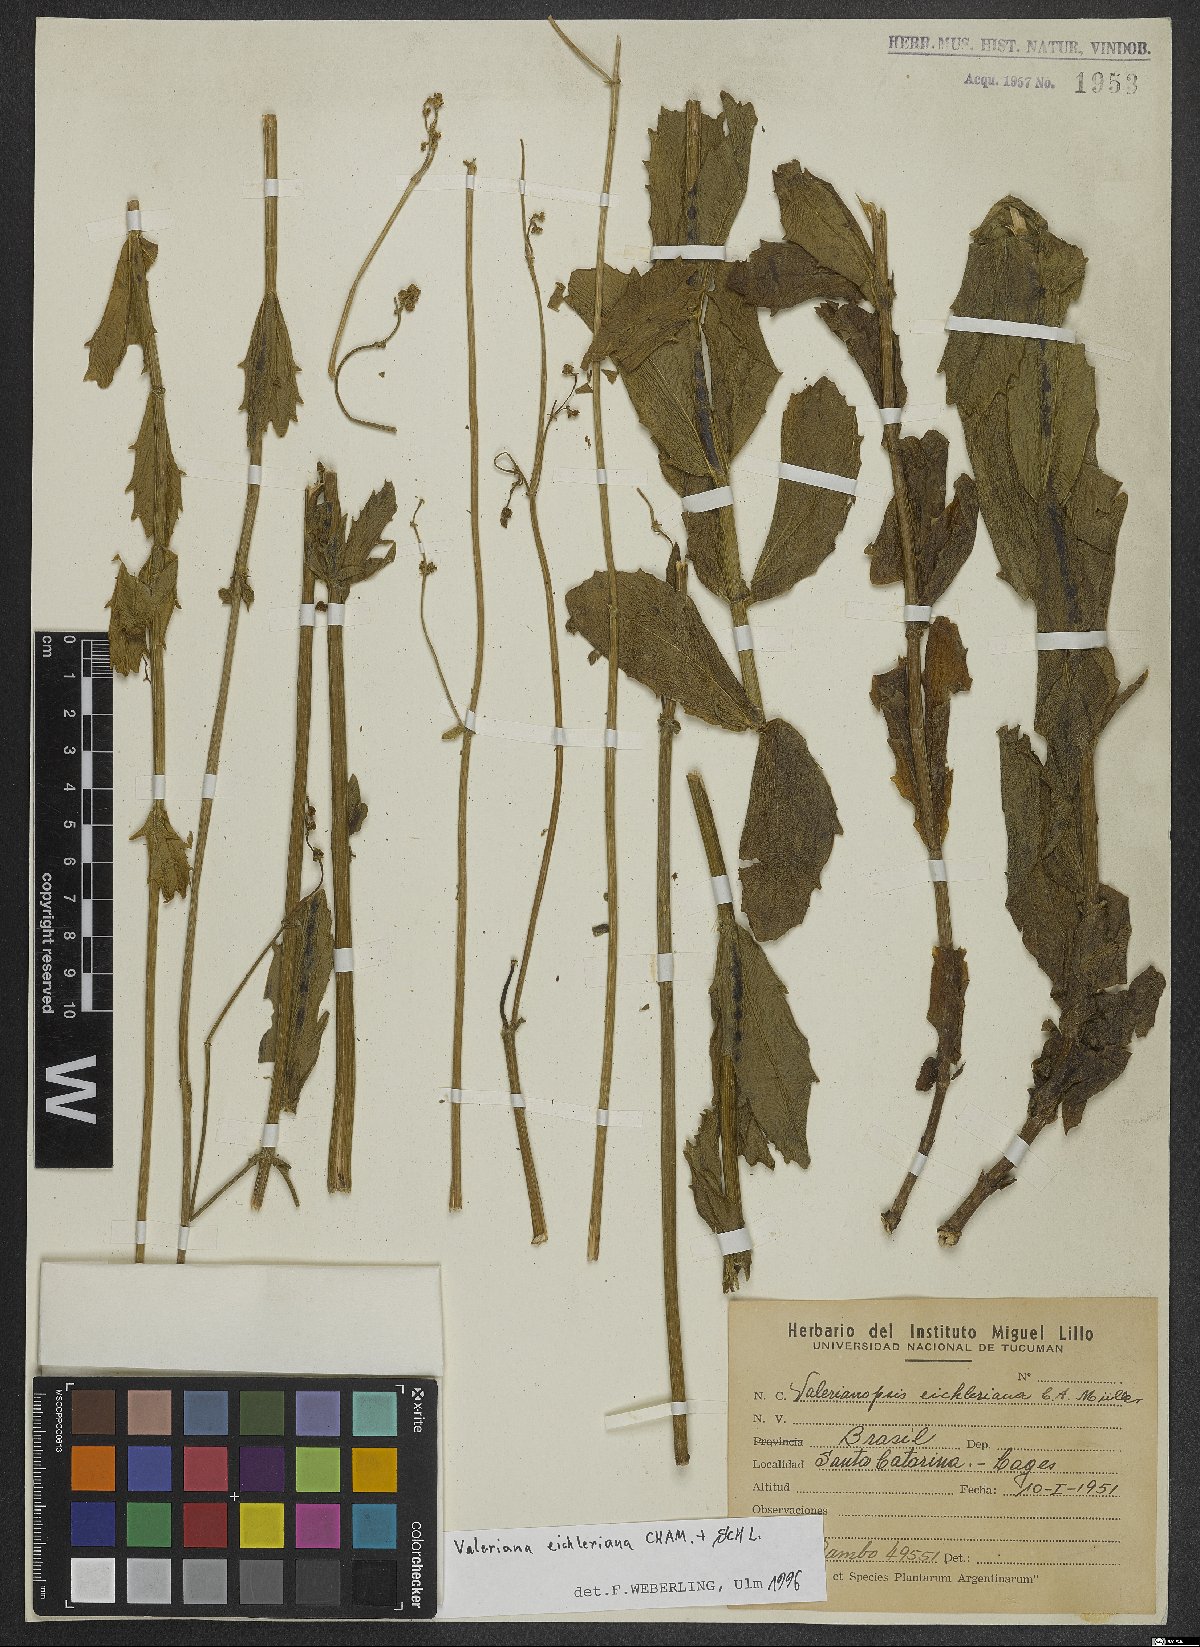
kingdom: Plantae
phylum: Tracheophyta
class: Magnoliopsida
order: Dipsacales
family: Caprifoliaceae
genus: Valeriana
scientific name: Valeriana eichleriana
